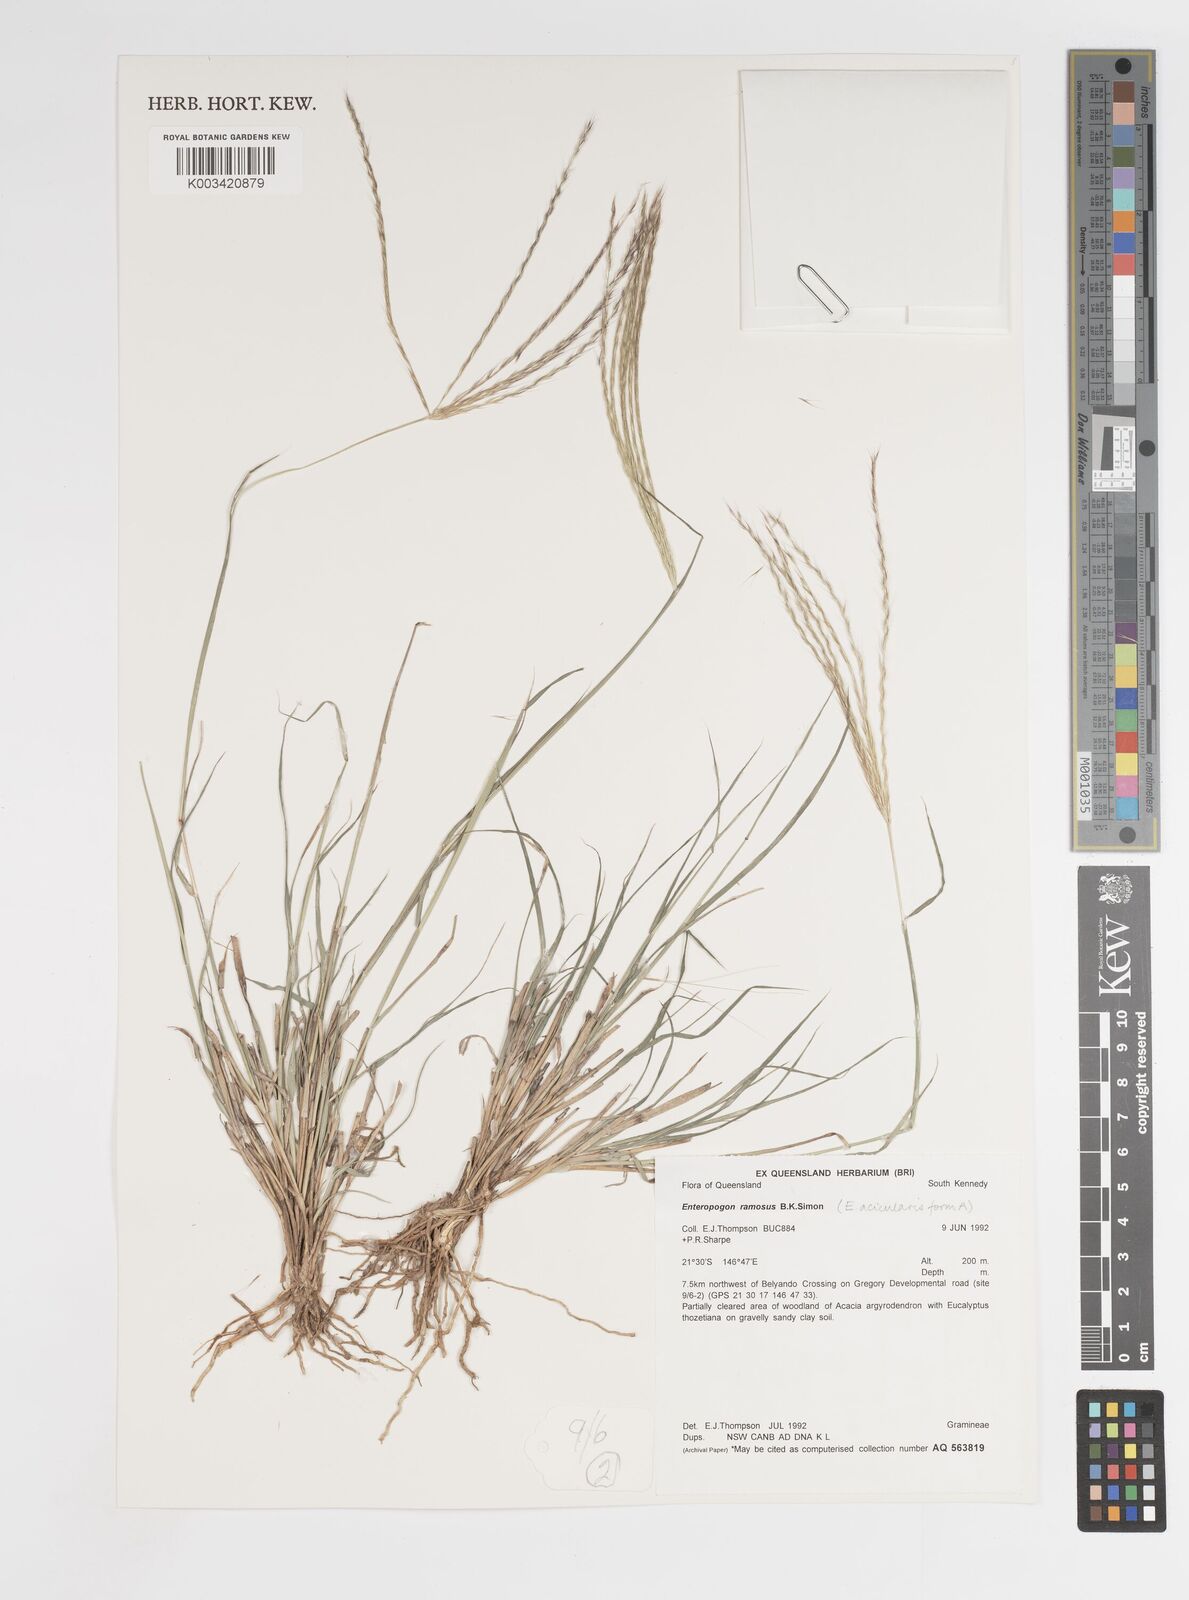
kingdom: Plantae
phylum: Tracheophyta
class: Liliopsida
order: Poales
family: Poaceae
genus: Enteropogon
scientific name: Enteropogon dolichostachyus
